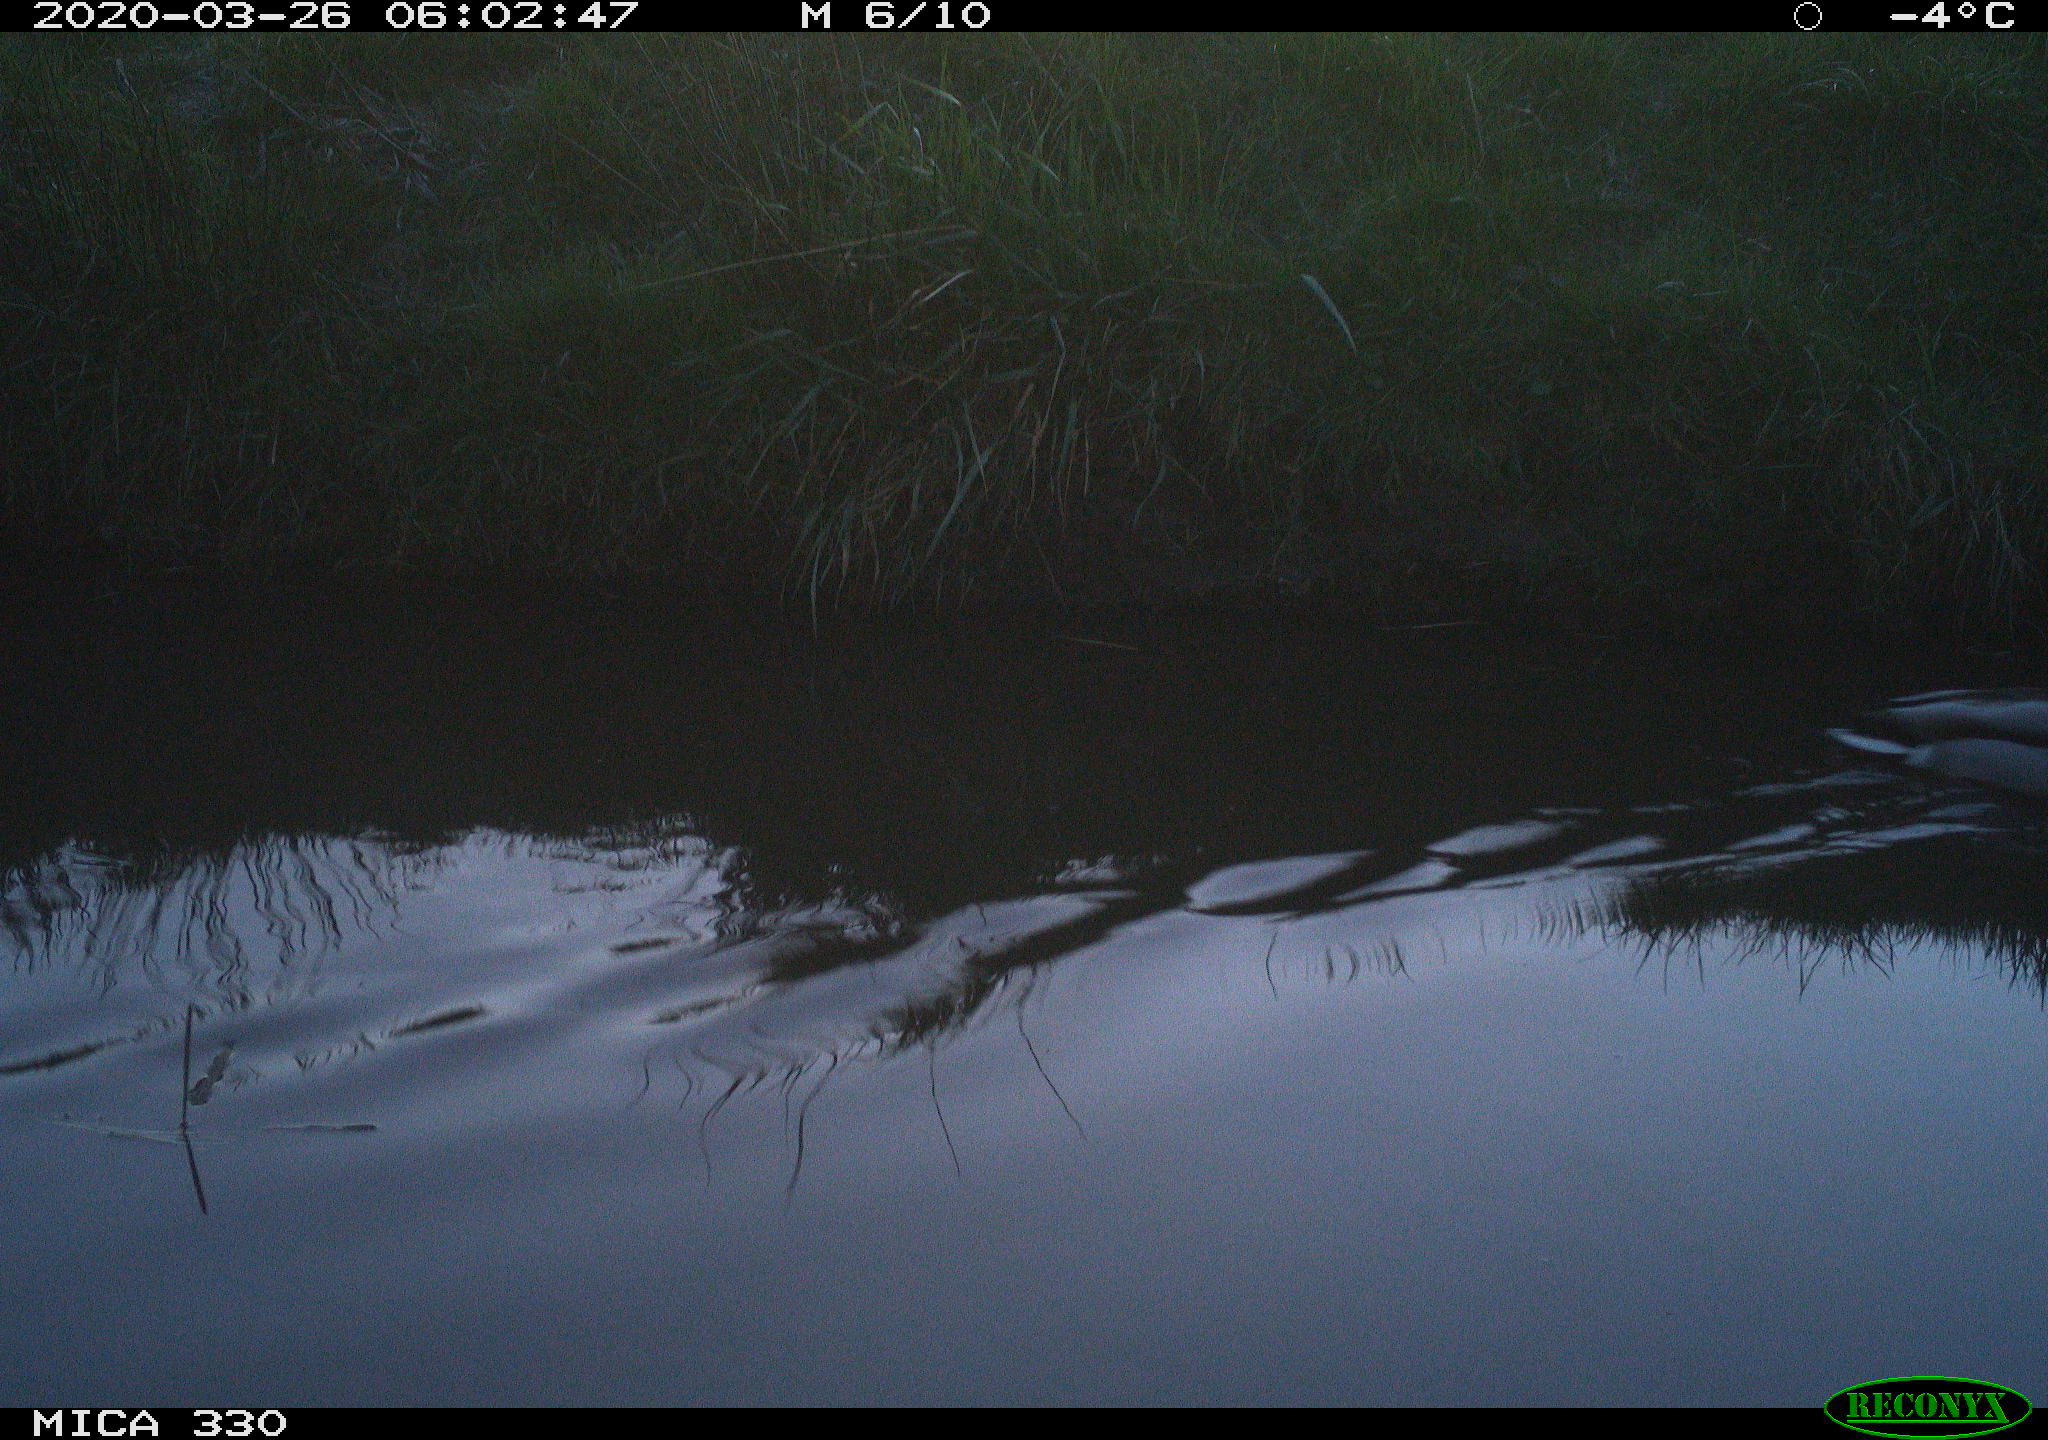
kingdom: Animalia
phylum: Chordata
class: Aves
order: Anseriformes
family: Anatidae
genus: Anas
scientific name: Anas platyrhynchos
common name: Mallard
